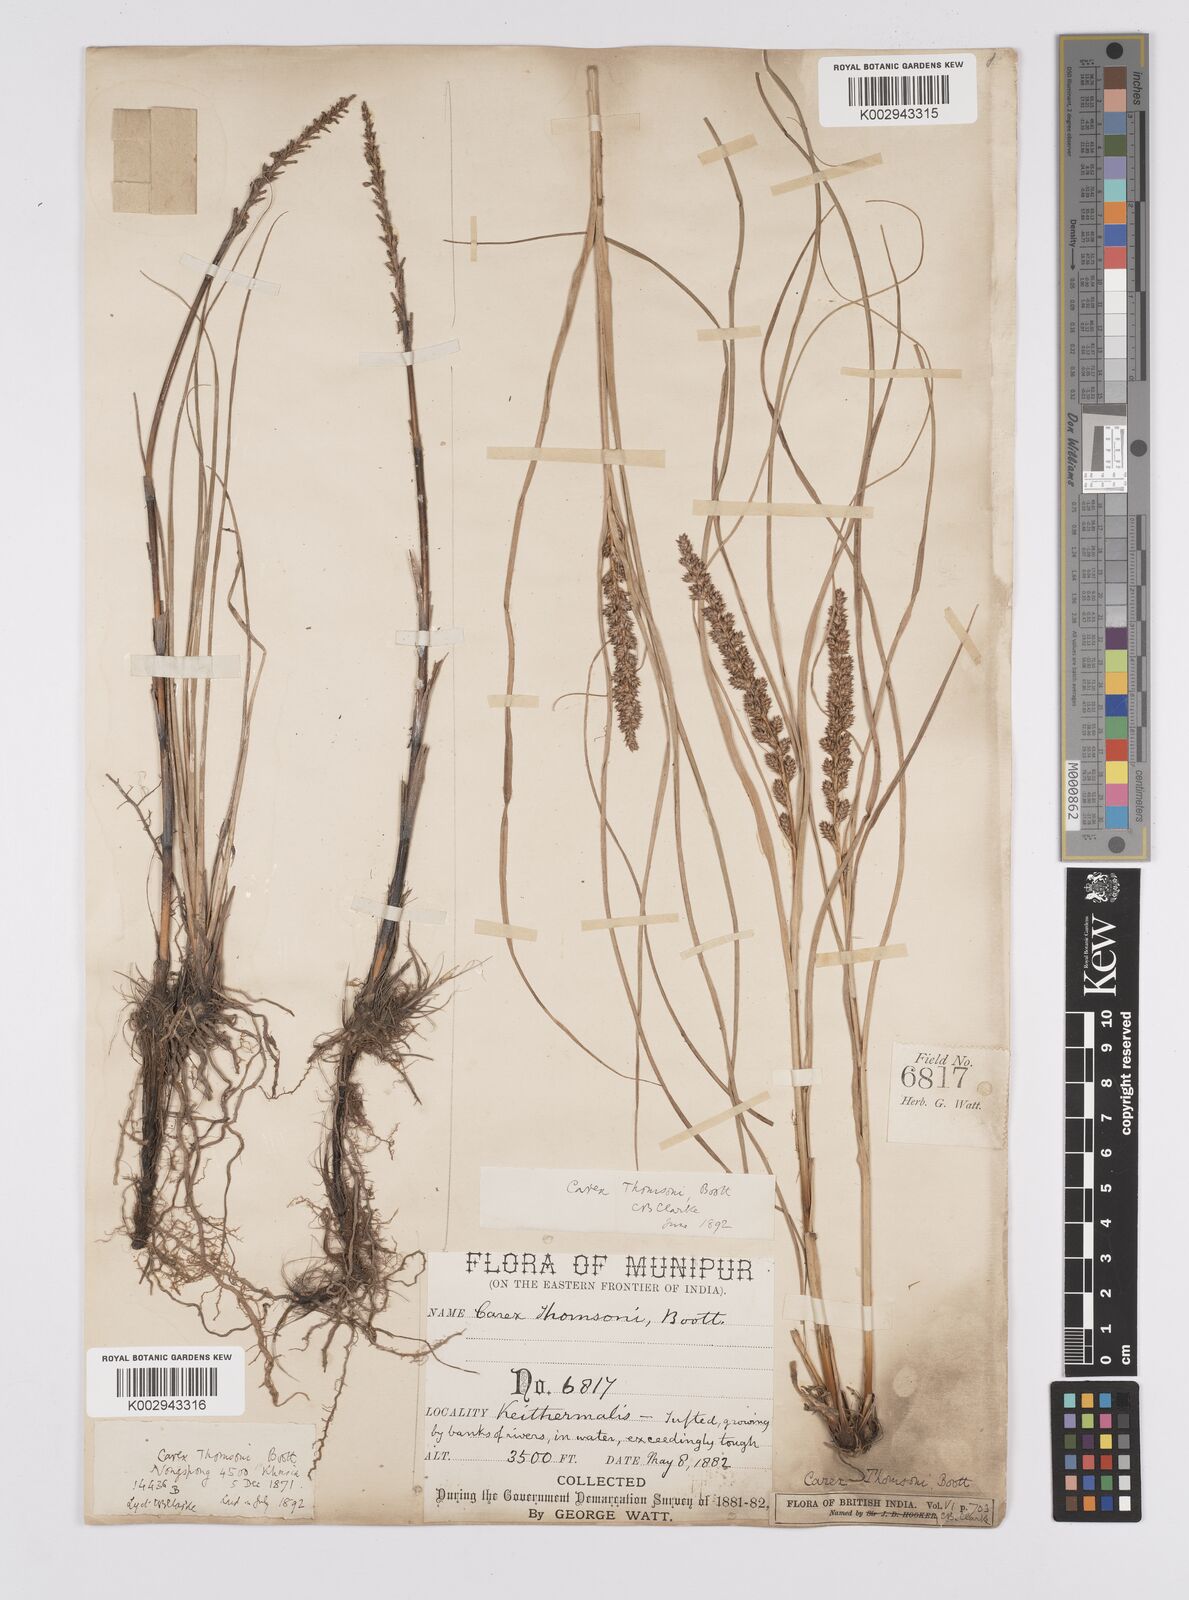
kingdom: Plantae
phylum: Tracheophyta
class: Liliopsida
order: Poales
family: Cyperaceae
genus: Carex
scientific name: Carex thomsonii
